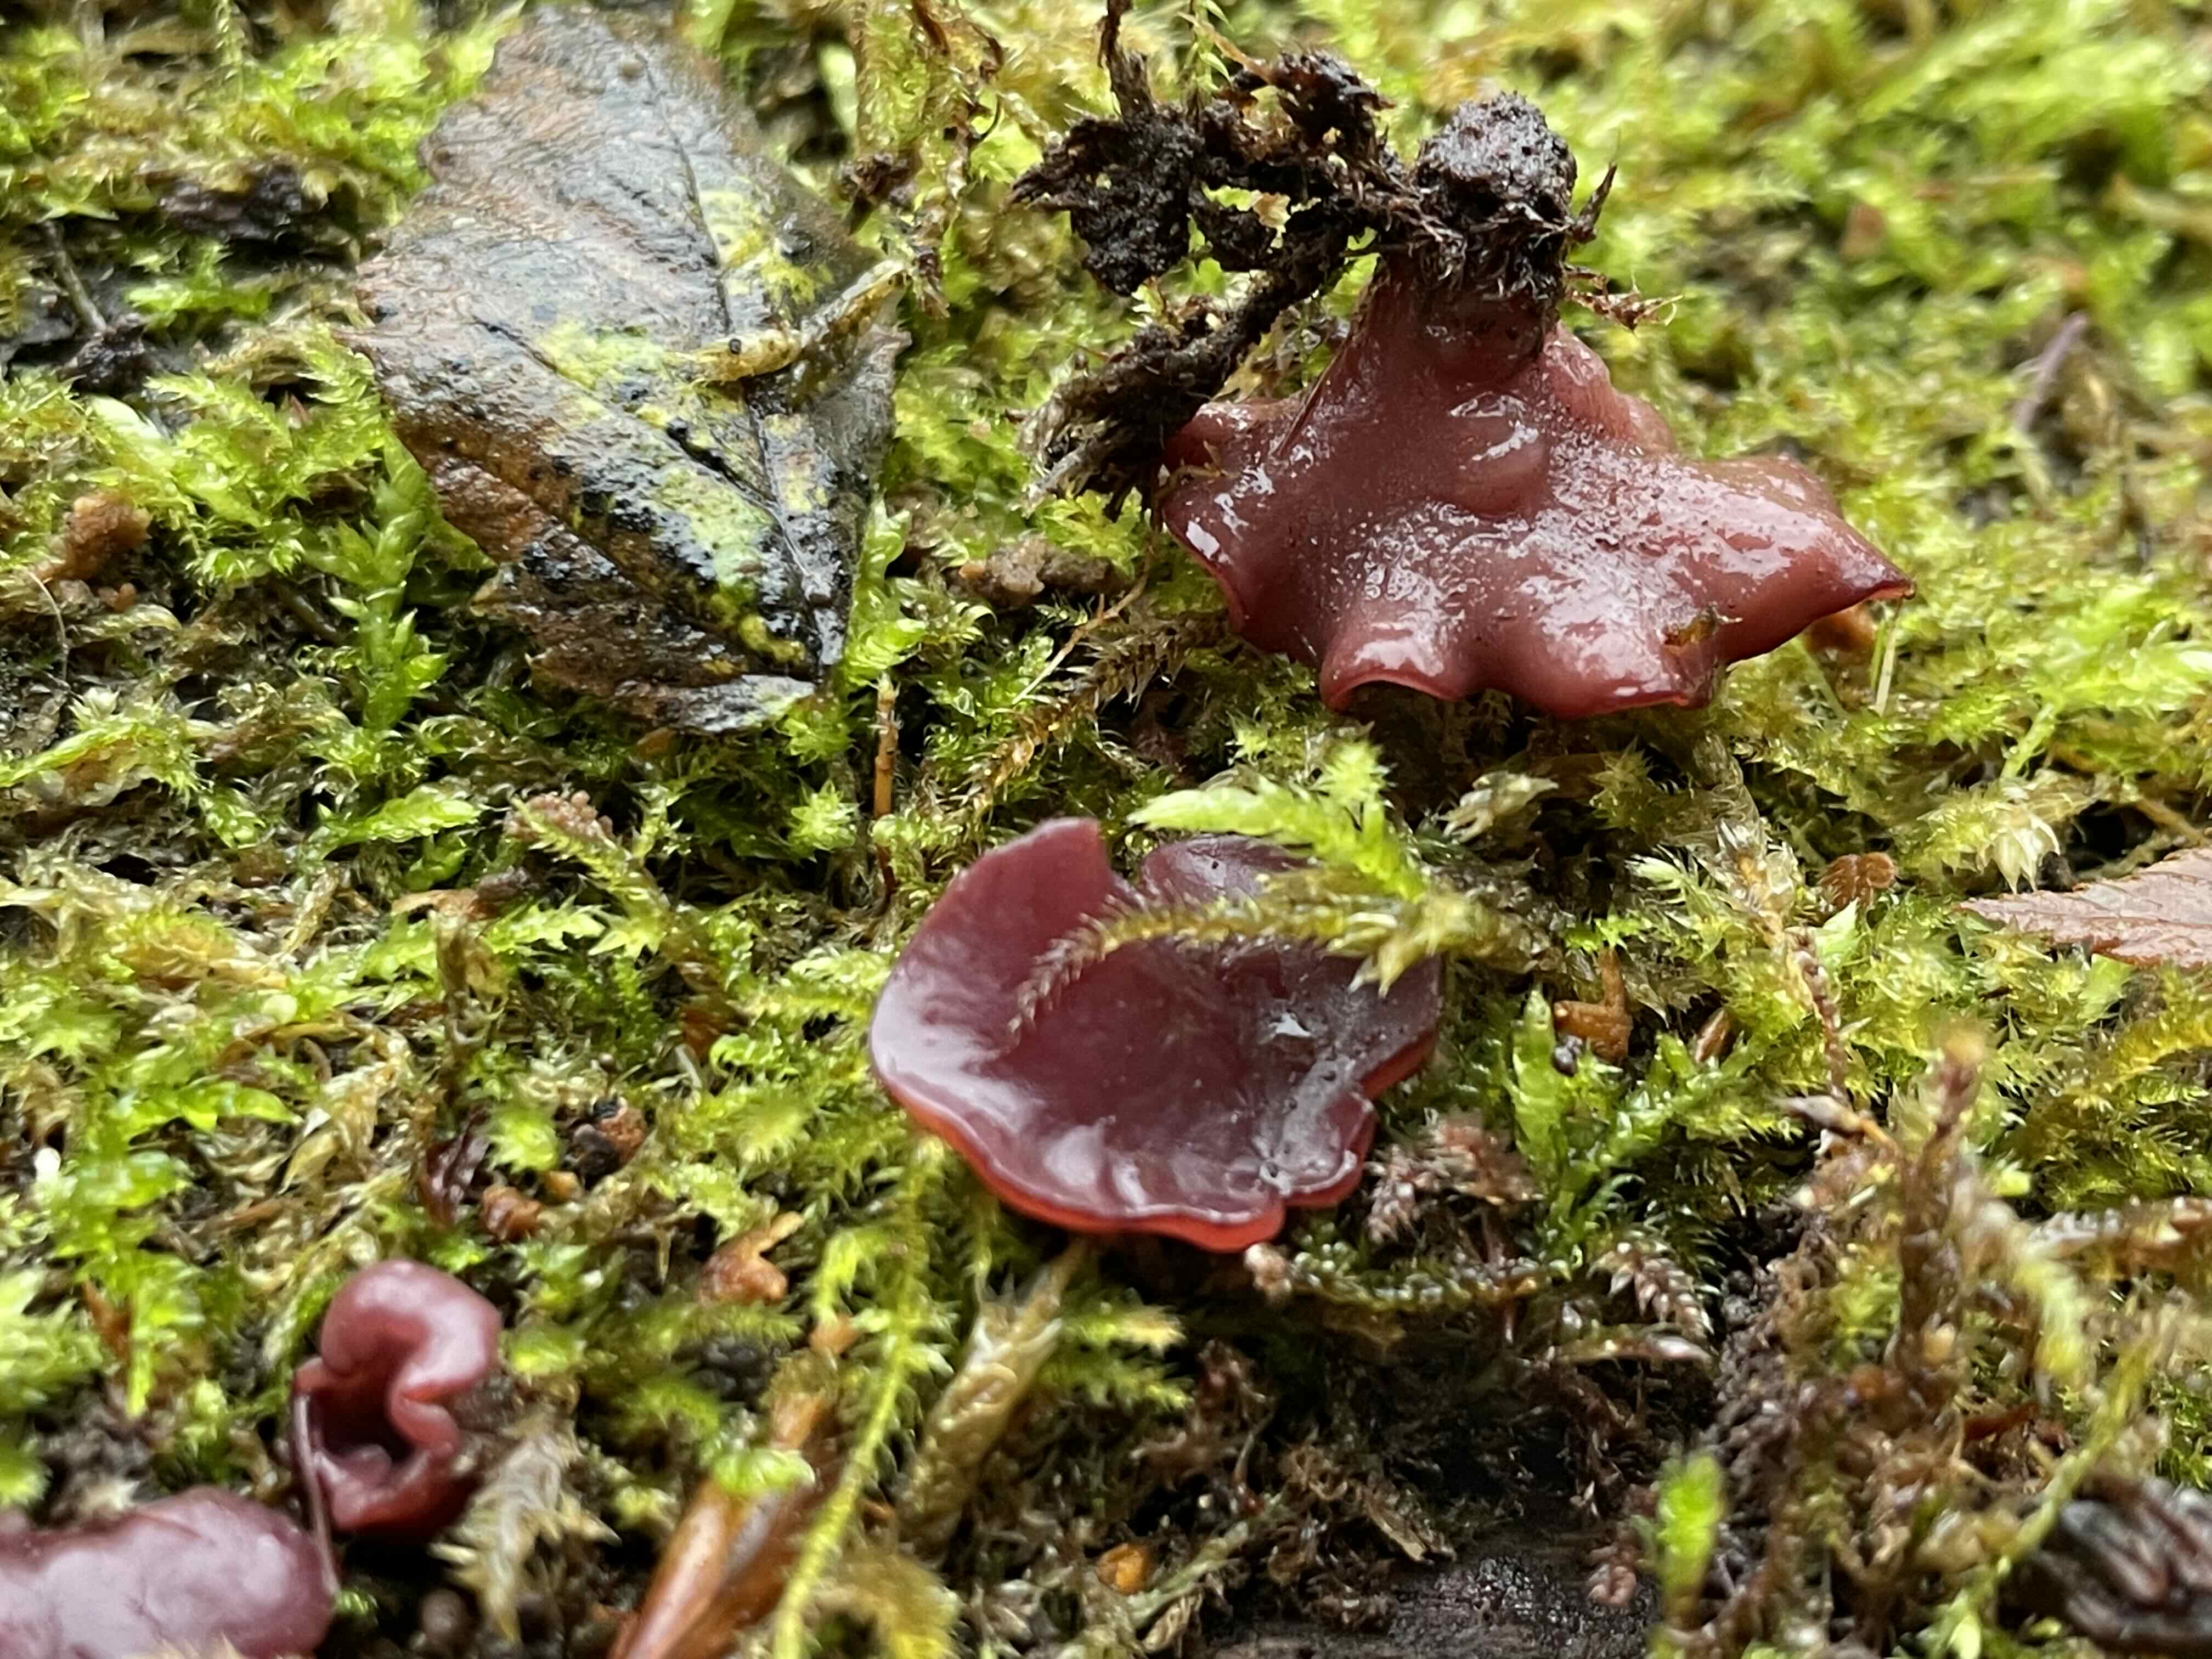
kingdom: Fungi
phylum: Ascomycota
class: Leotiomycetes
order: Helotiales
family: Gelatinodiscaceae
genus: Ascocoryne
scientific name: Ascocoryne cylichnium
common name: stor sejskive
